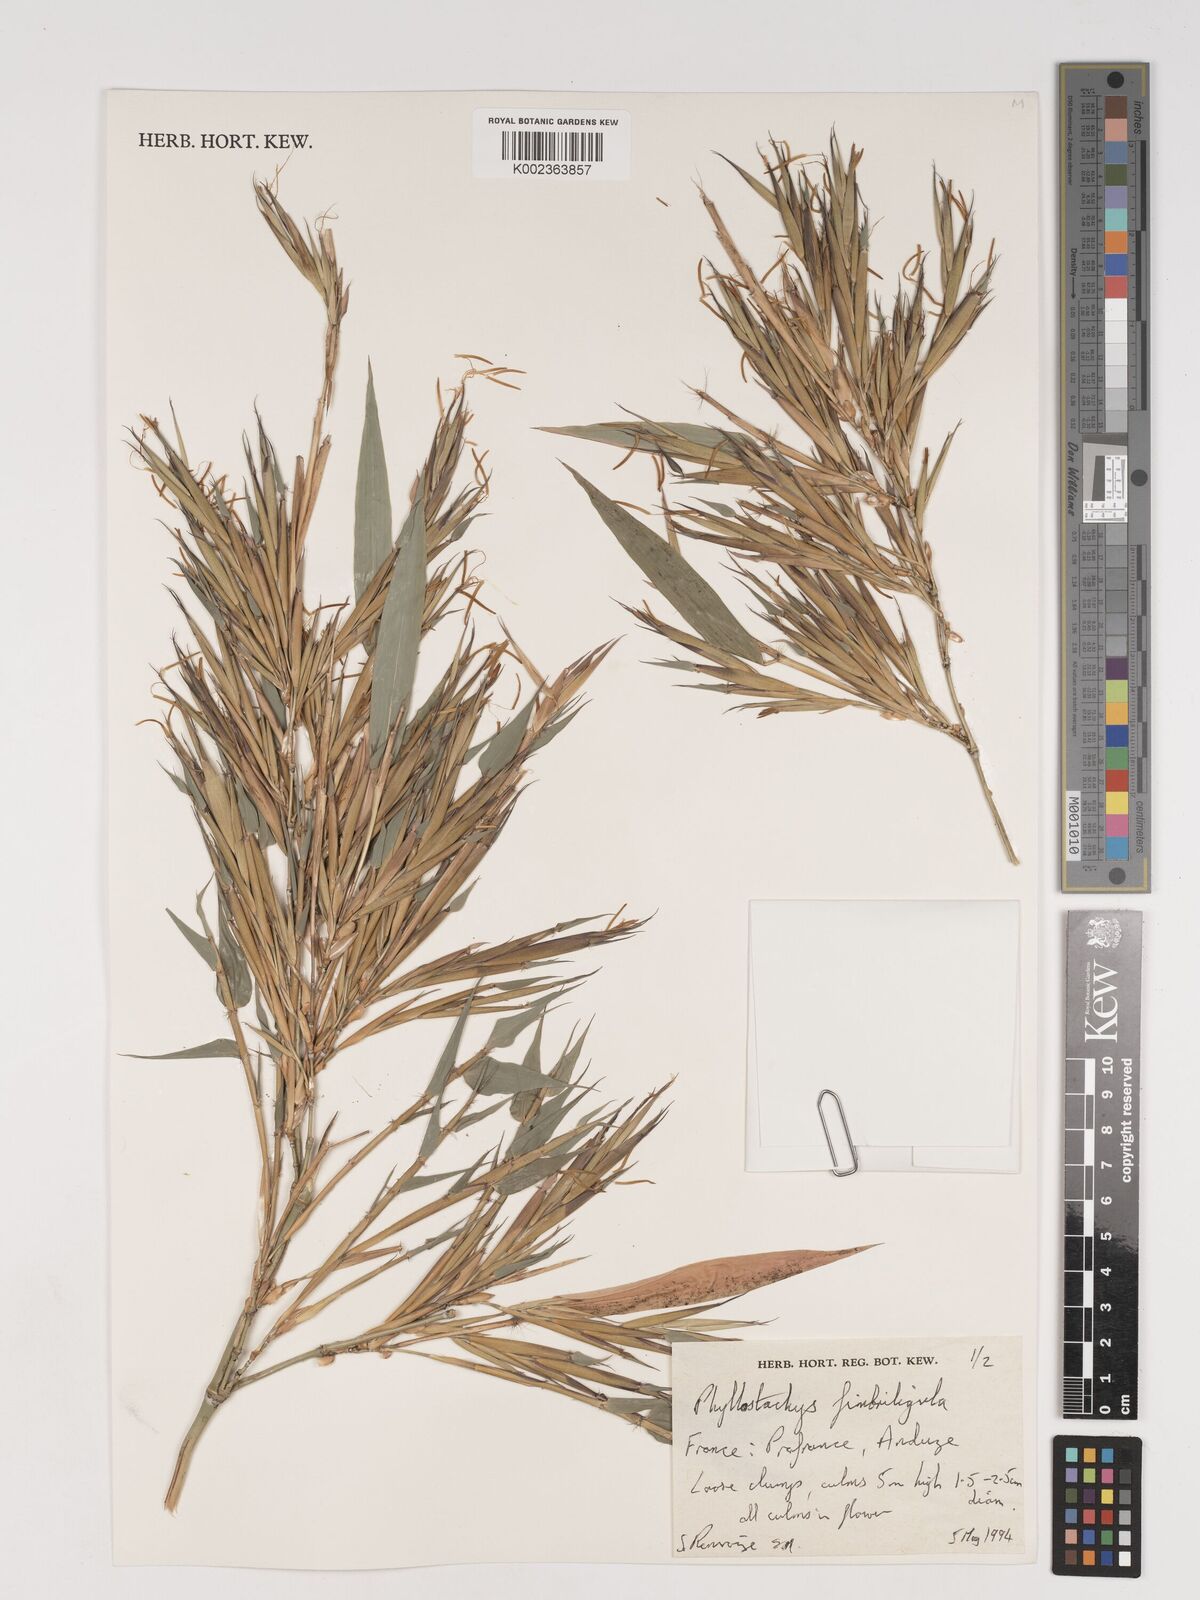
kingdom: Plantae
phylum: Tracheophyta
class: Liliopsida
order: Poales
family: Poaceae
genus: Phyllostachys
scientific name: Phyllostachys
